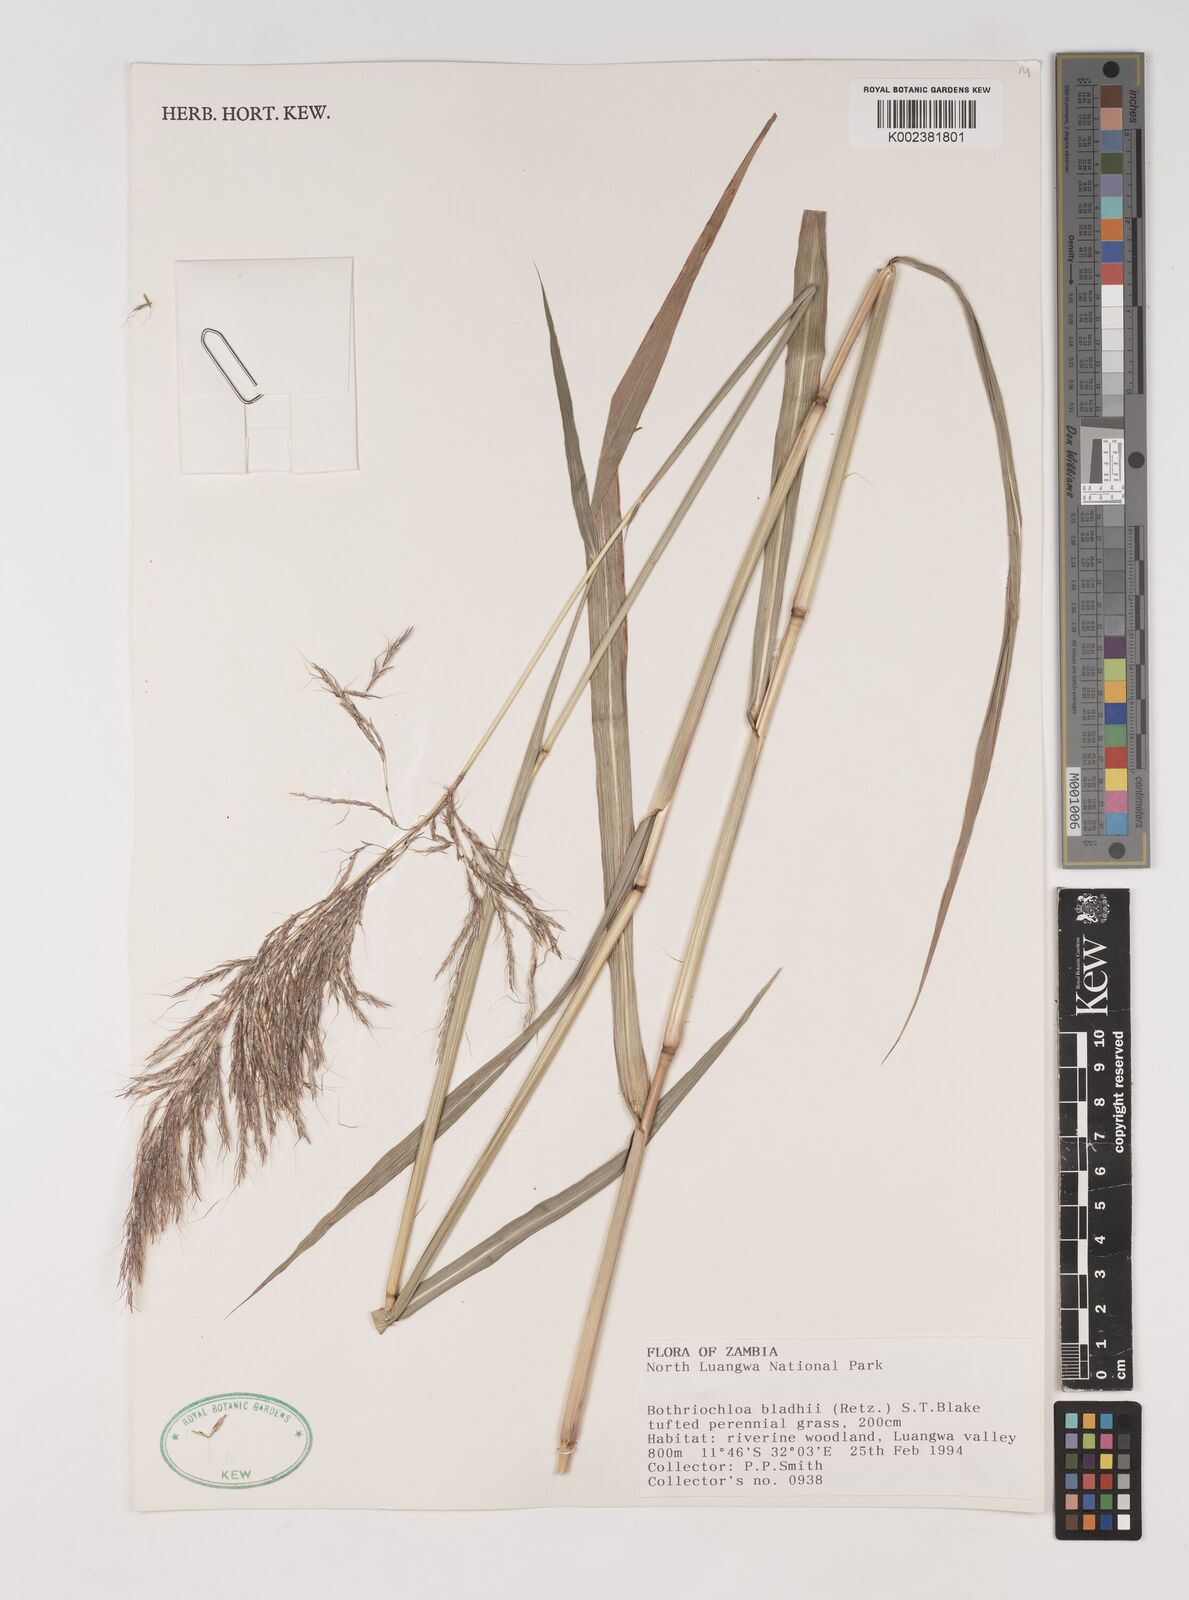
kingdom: Plantae
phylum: Tracheophyta
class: Liliopsida
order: Poales
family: Poaceae
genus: Bothriochloa
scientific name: Bothriochloa bladhii
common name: Caucasian bluestem
